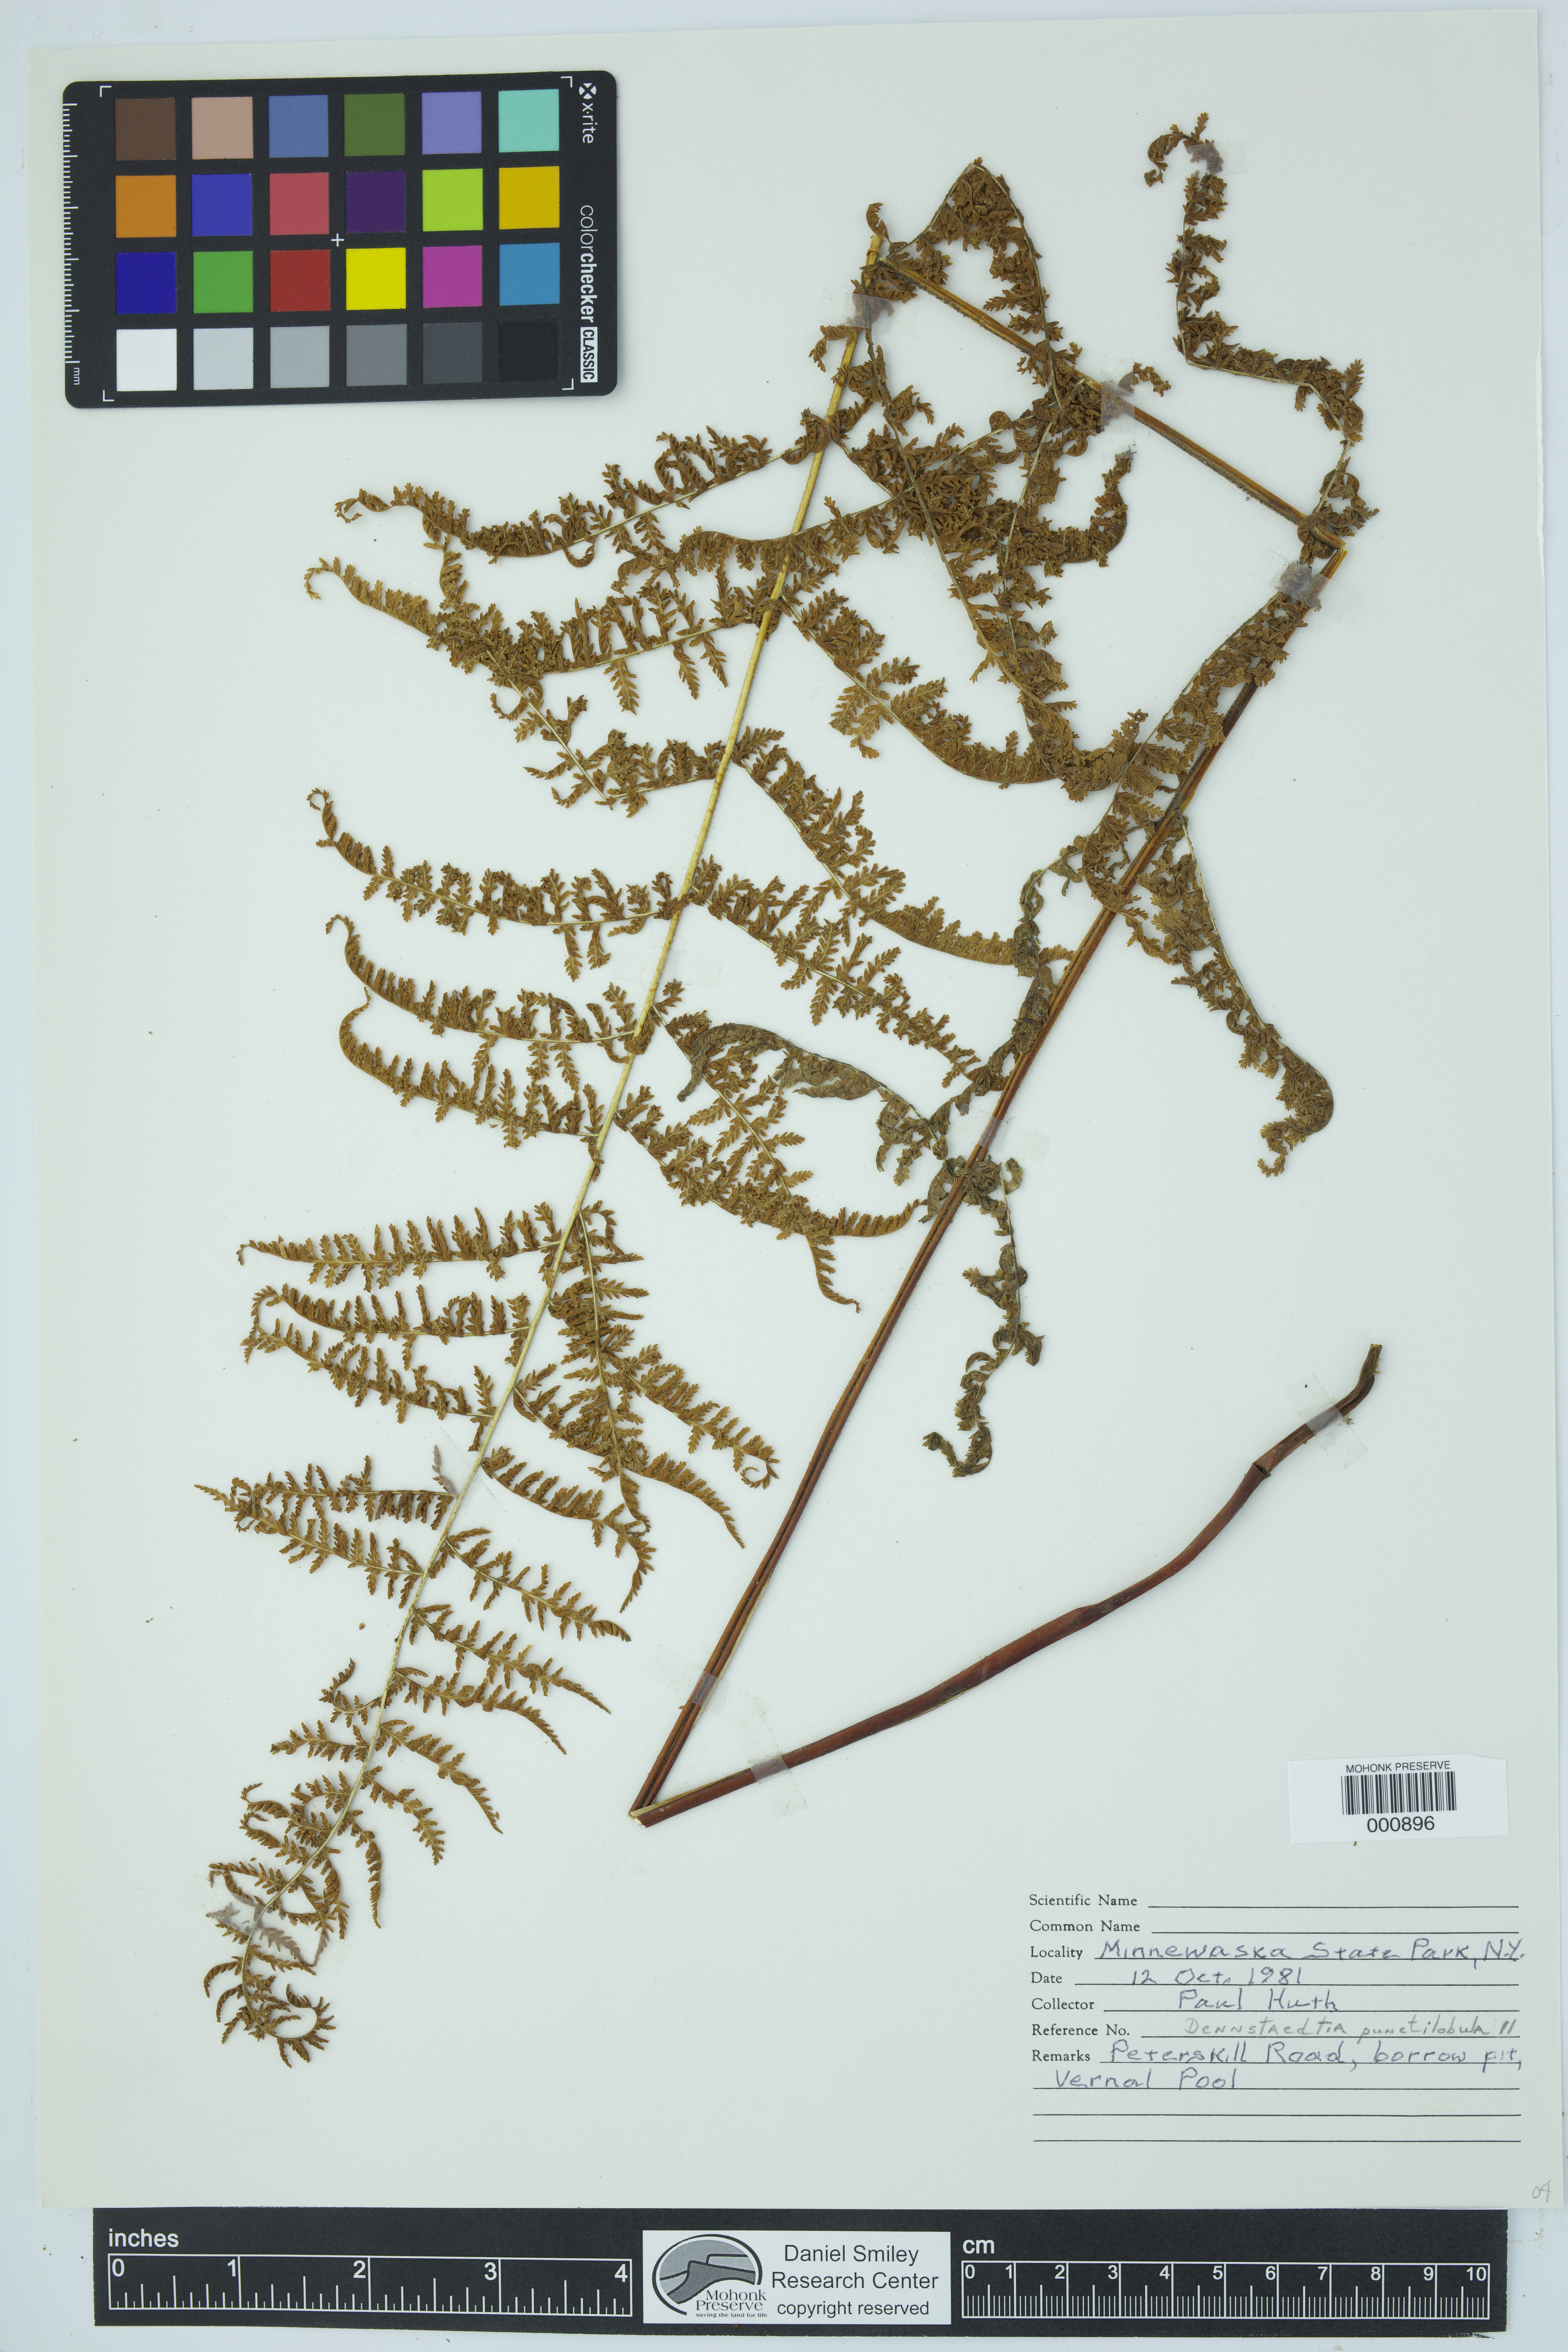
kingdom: Plantae
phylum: Tracheophyta
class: Polypodiopsida
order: Polypodiales
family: Dennstaedtiaceae
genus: Sitobolium
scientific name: Sitobolium punctilobum
